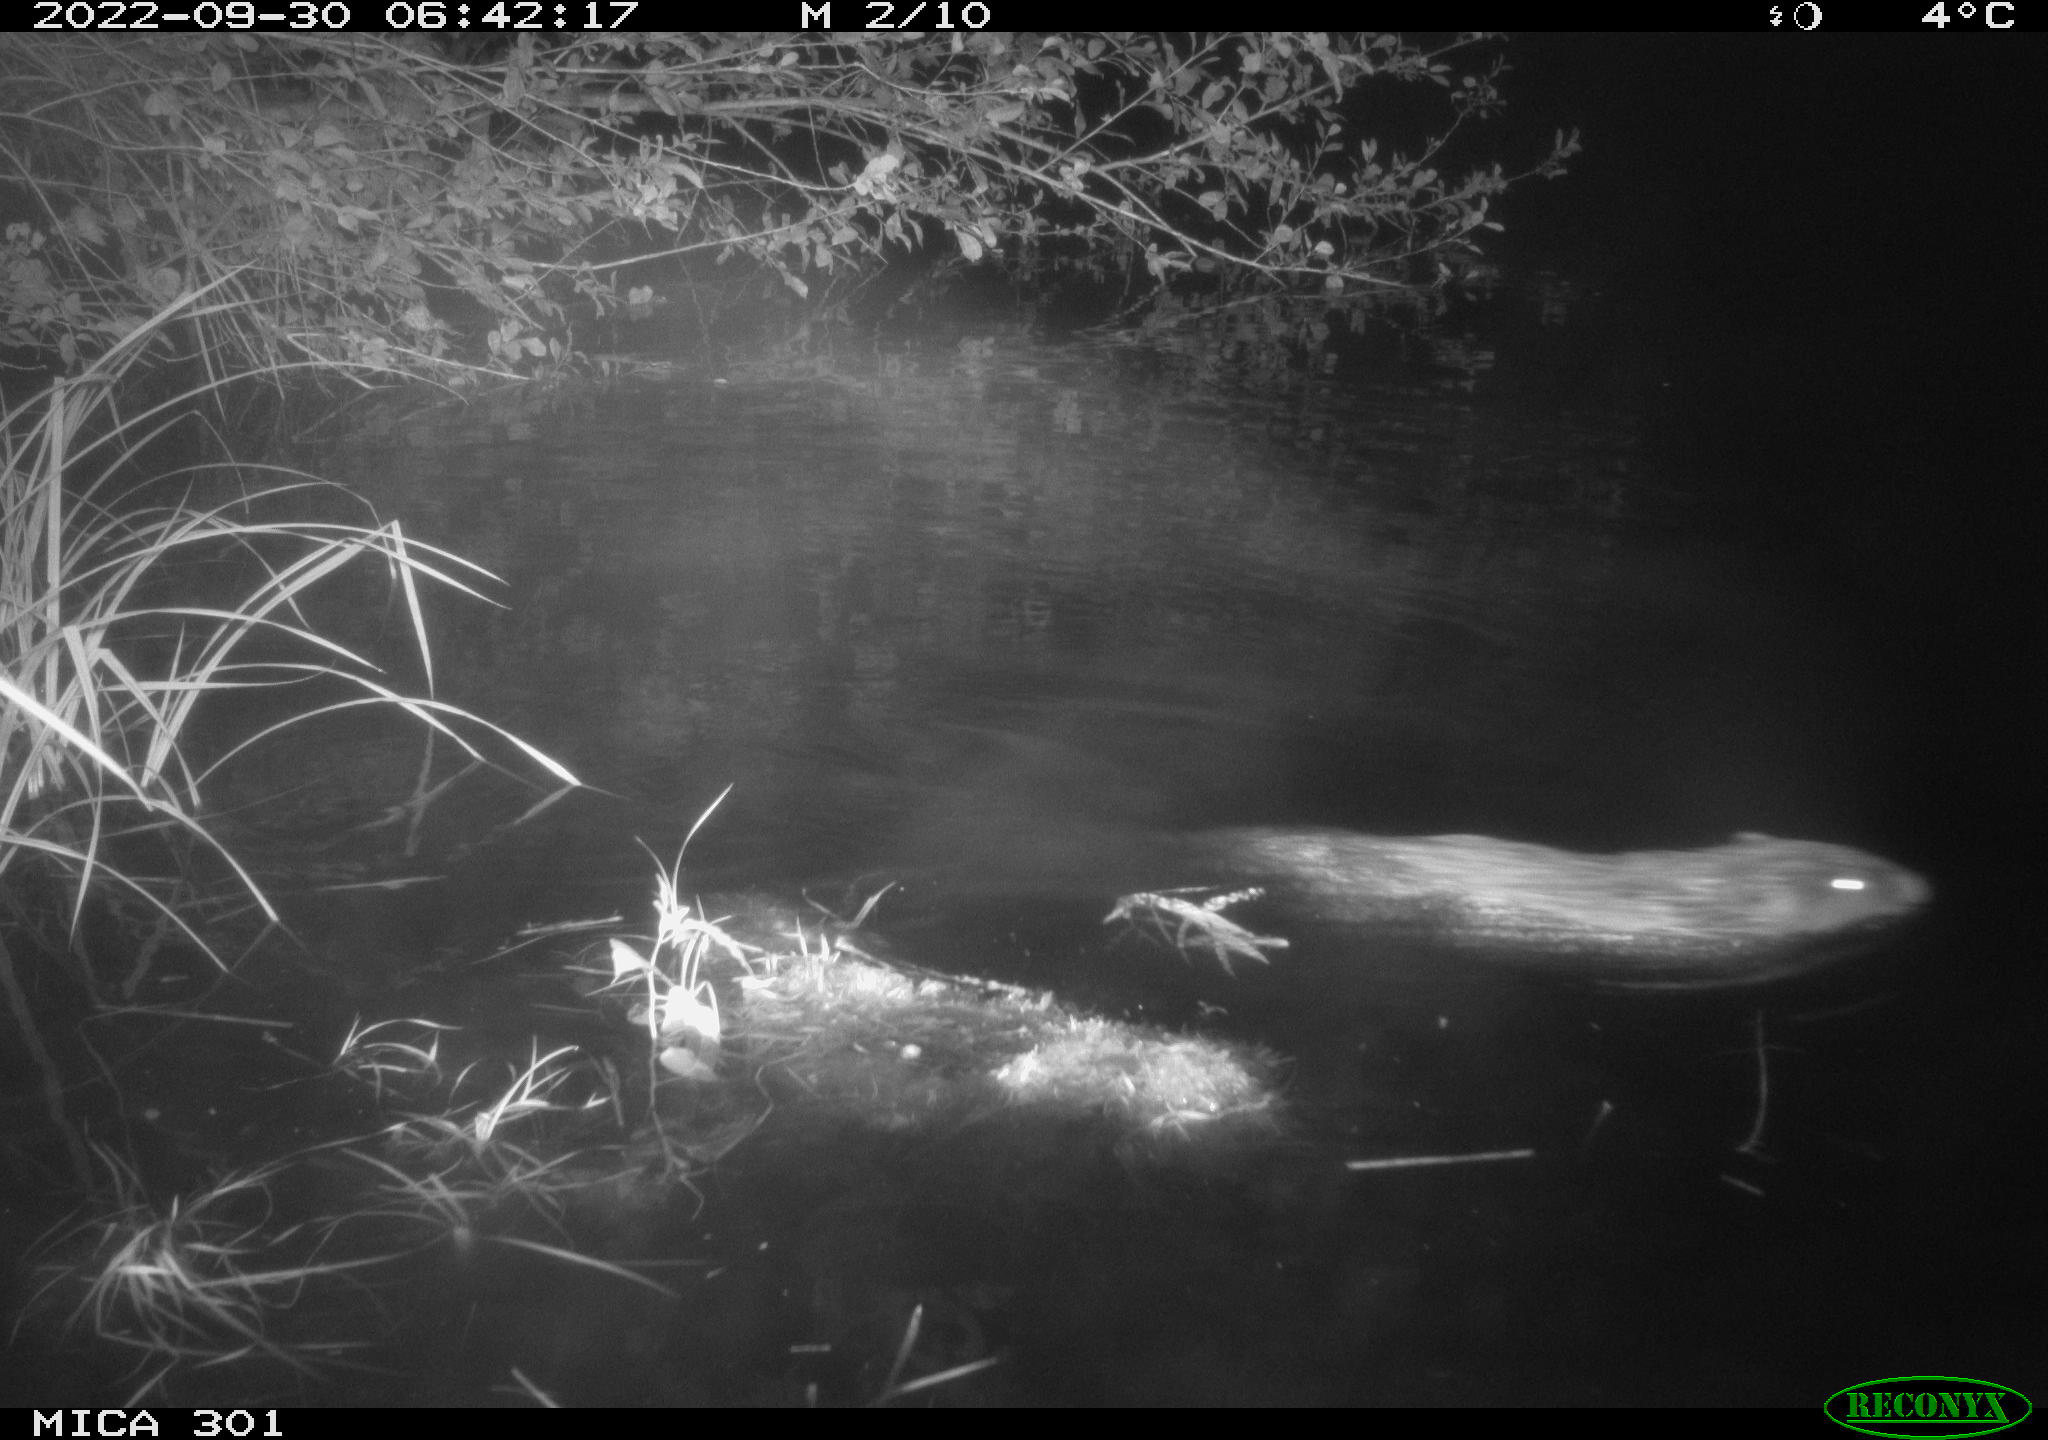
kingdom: Animalia
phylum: Chordata
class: Mammalia
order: Rodentia
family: Castoridae
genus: Castor
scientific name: Castor fiber
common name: Eurasian beaver
